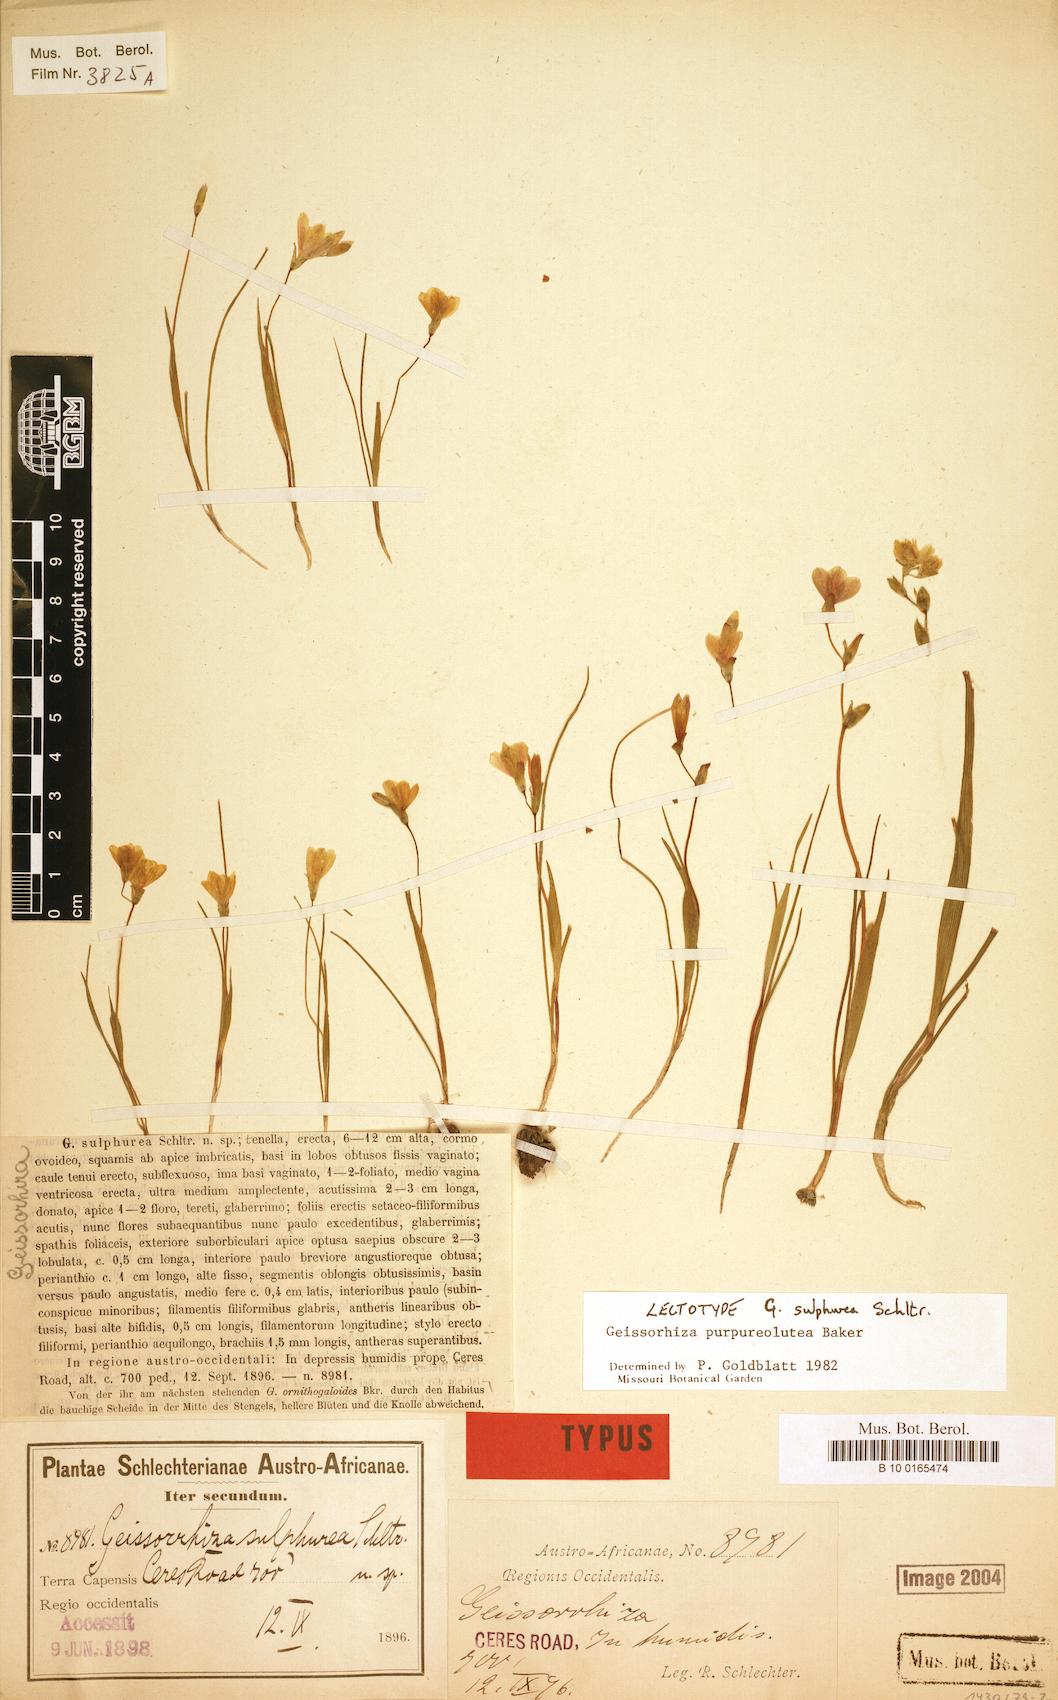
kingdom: Plantae
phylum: Tracheophyta
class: Liliopsida
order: Asparagales
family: Iridaceae
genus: Geissorhiza
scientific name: Geissorhiza purpureolutea
